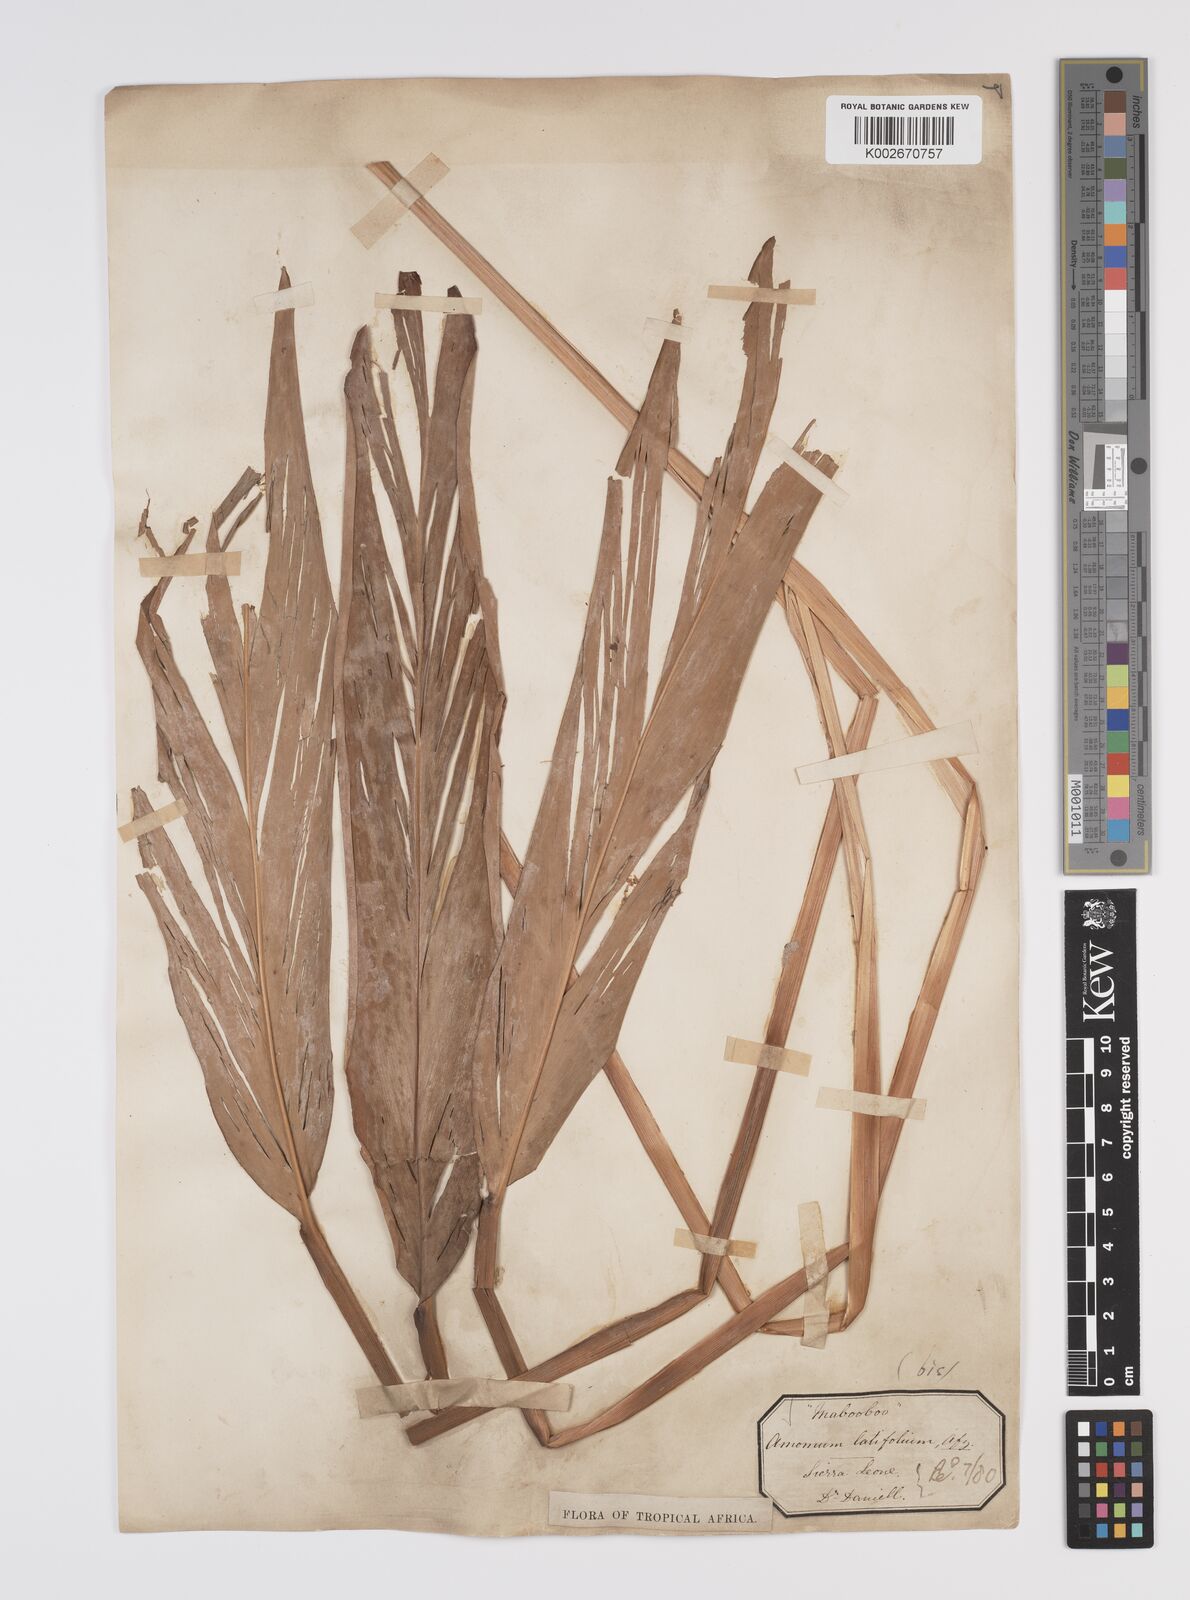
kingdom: Plantae
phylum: Tracheophyta
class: Liliopsida
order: Zingiberales
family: Zingiberaceae
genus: Aframomum
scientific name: Aframomum alboviolaceum
